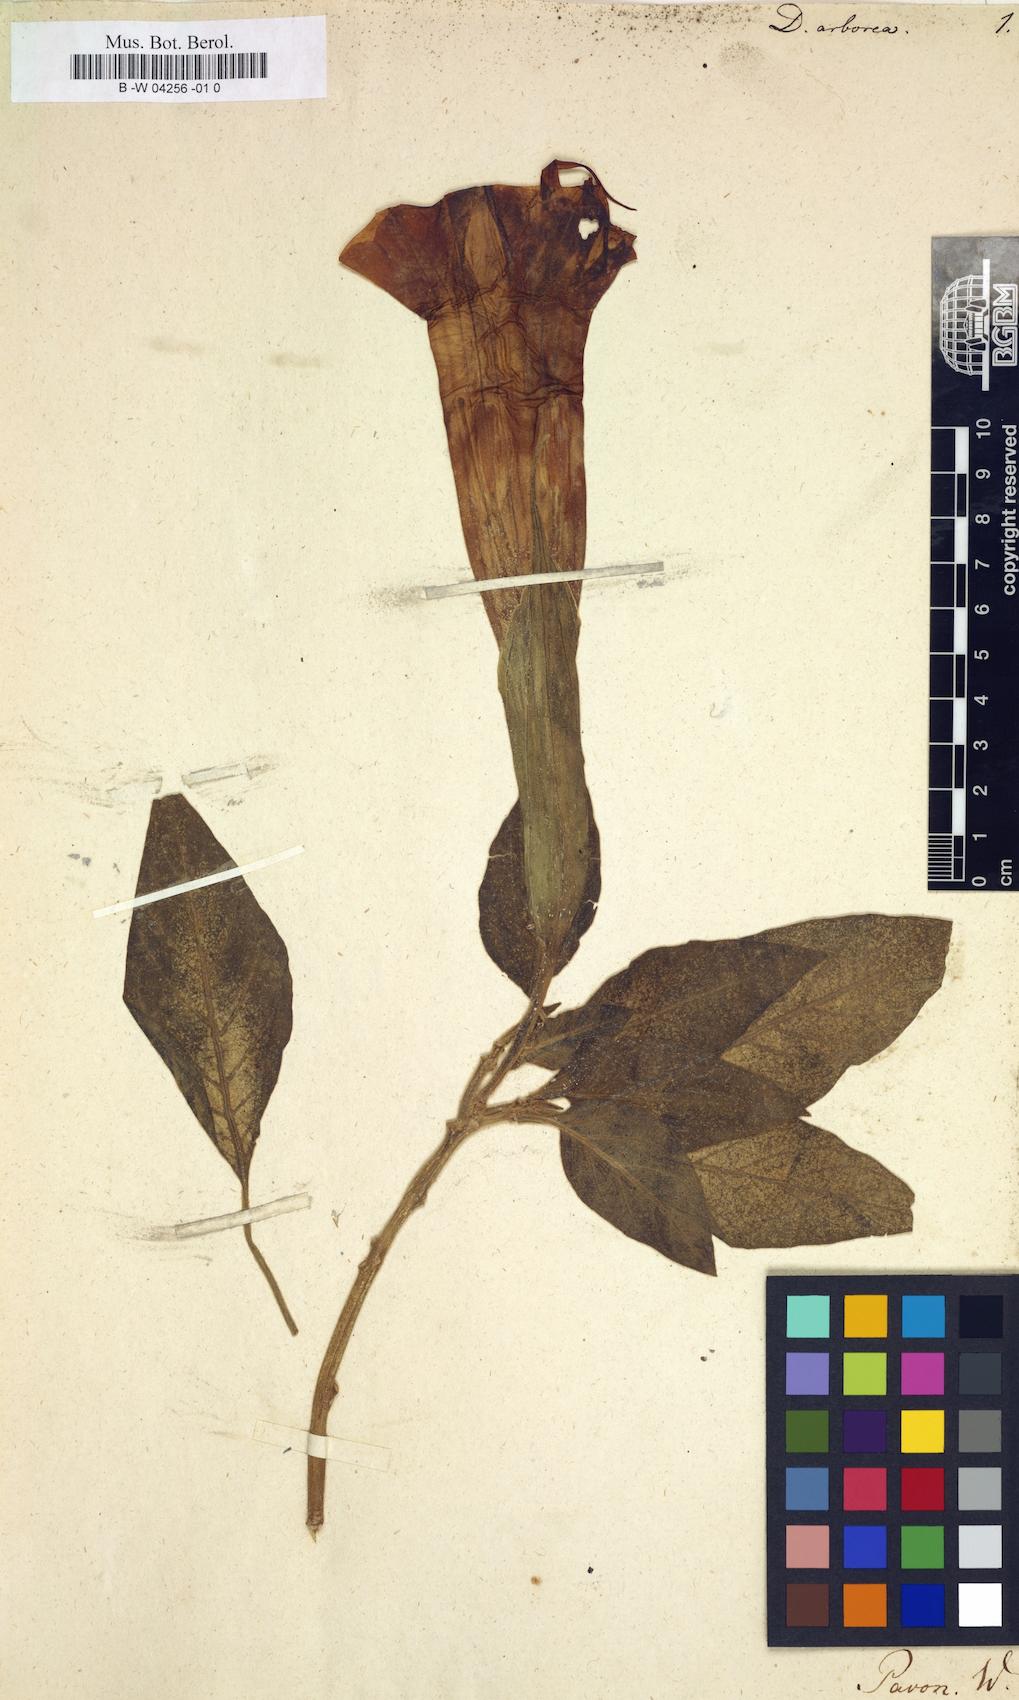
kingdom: Plantae
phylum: Tracheophyta
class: Magnoliopsida
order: Solanales
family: Solanaceae
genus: Brugmansia
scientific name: Brugmansia
